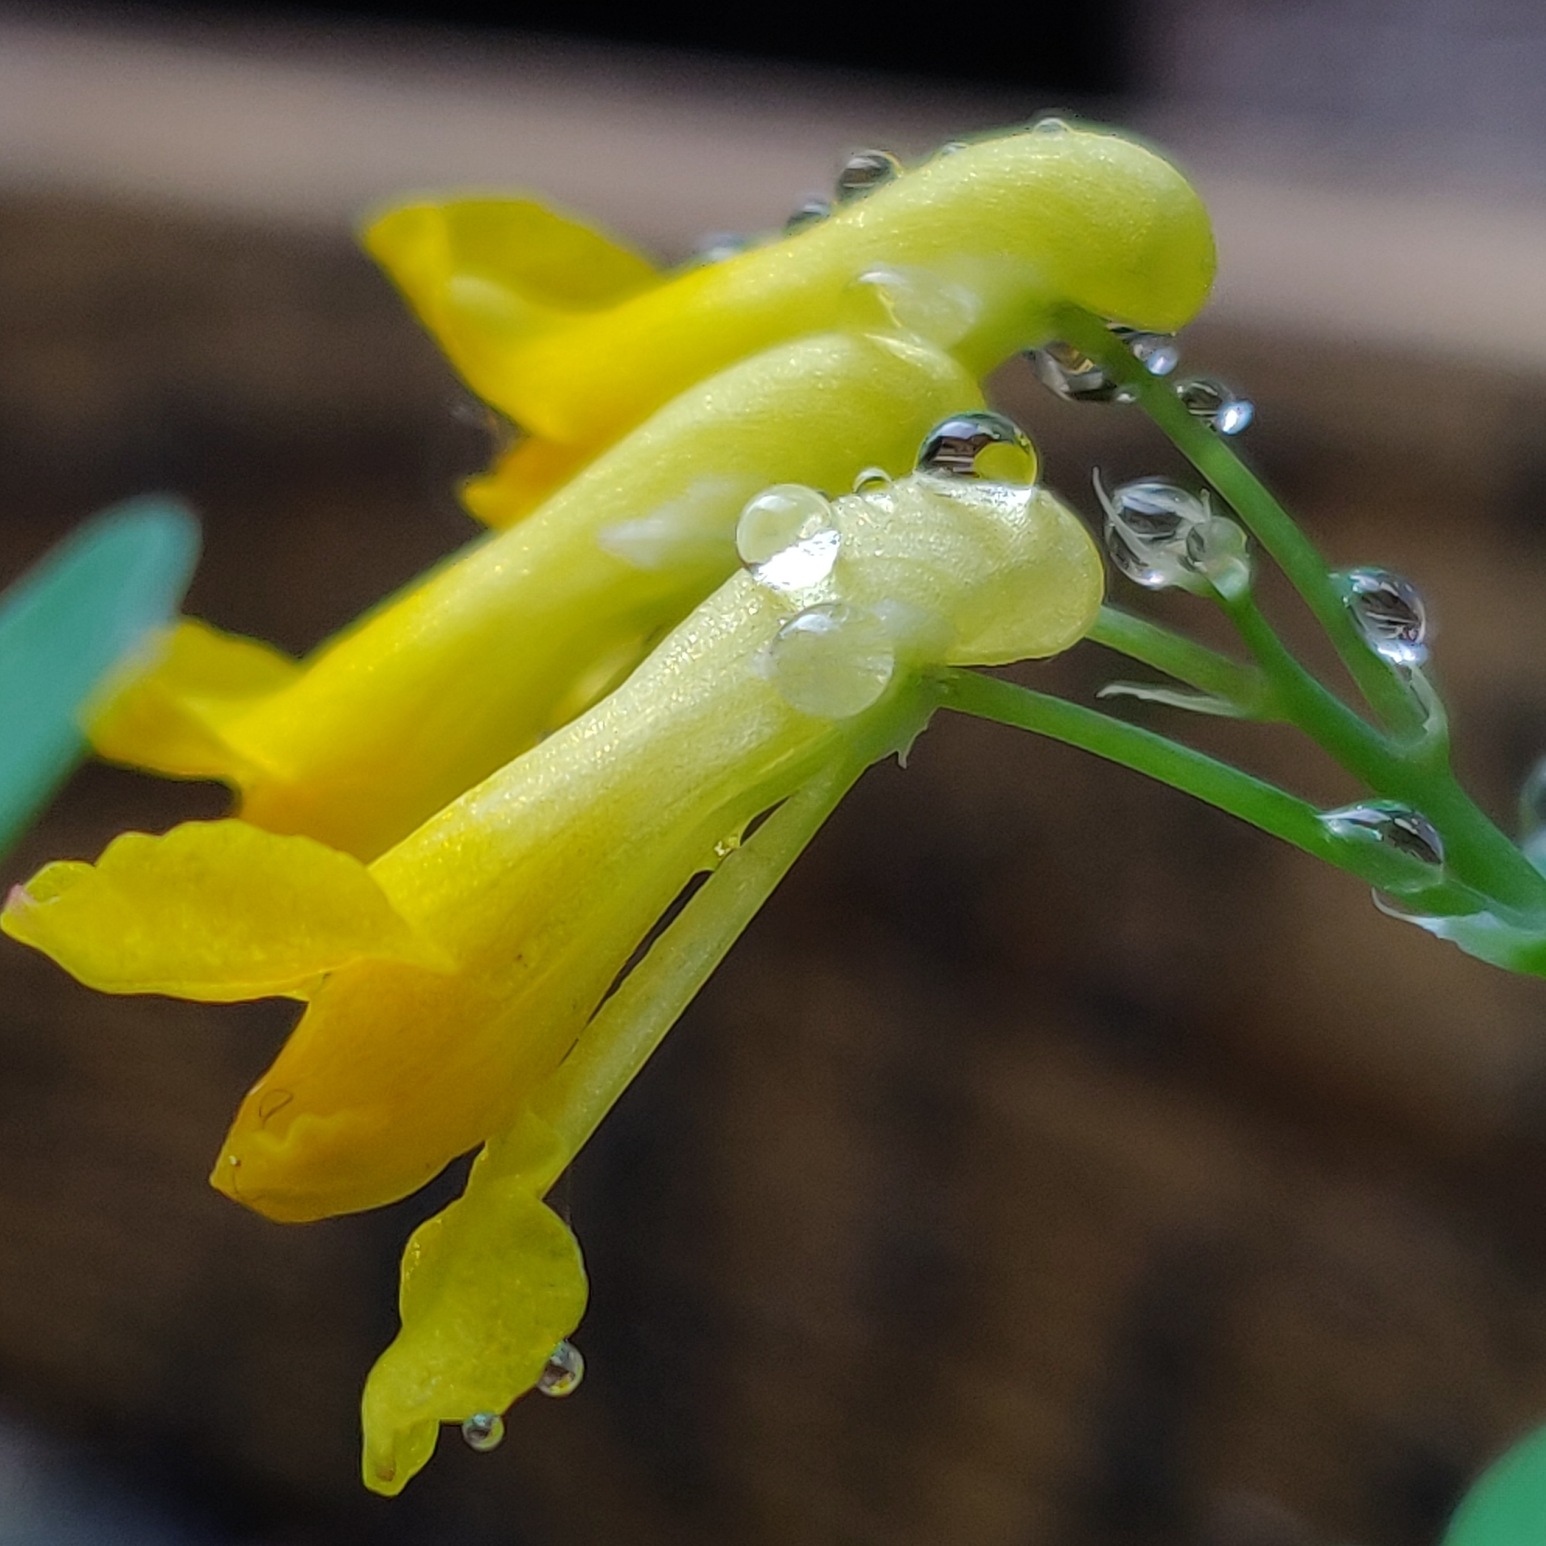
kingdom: Plantae
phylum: Tracheophyta
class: Magnoliopsida
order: Ranunculales
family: Papaveraceae
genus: Pseudofumaria
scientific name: Pseudofumaria lutea
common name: Gul lærkespore
